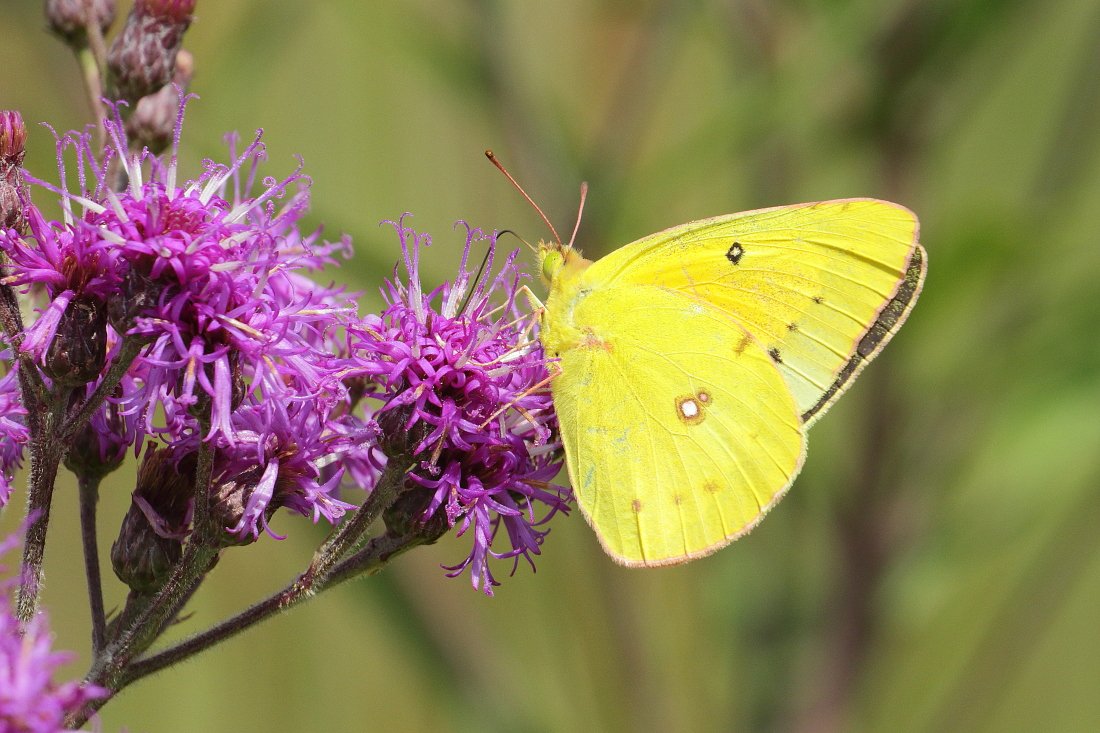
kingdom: Animalia
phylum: Arthropoda
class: Insecta
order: Lepidoptera
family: Pieridae
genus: Colias
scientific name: Colias eurytheme
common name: Orange Sulphur
